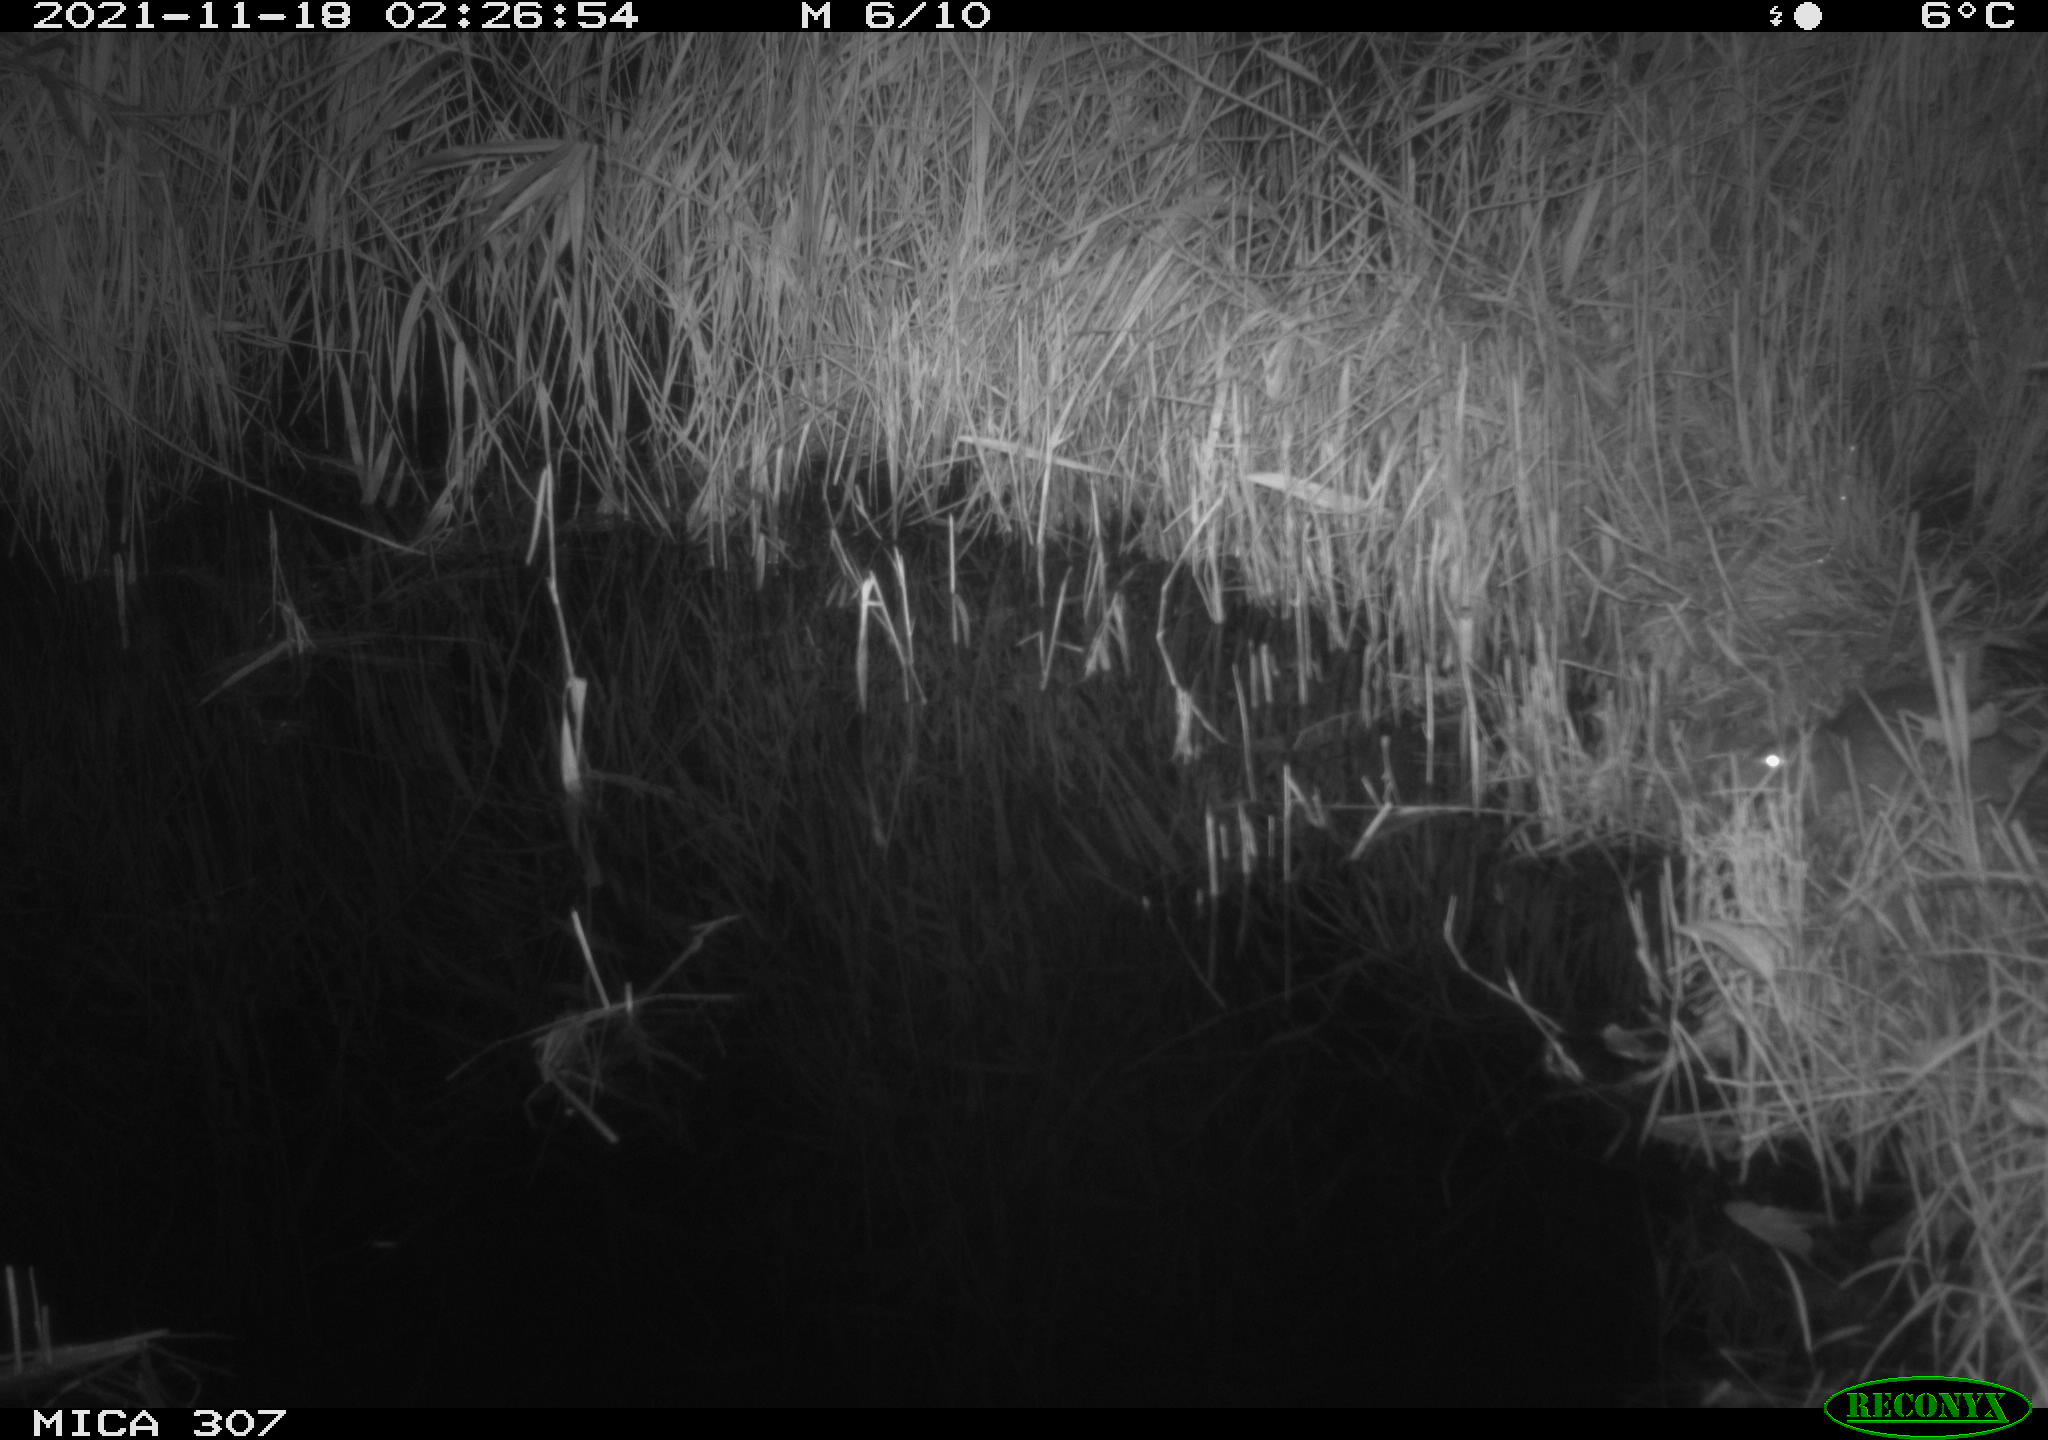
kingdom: Animalia
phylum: Chordata
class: Mammalia
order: Rodentia
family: Muridae
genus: Rattus
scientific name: Rattus norvegicus
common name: Brown rat
